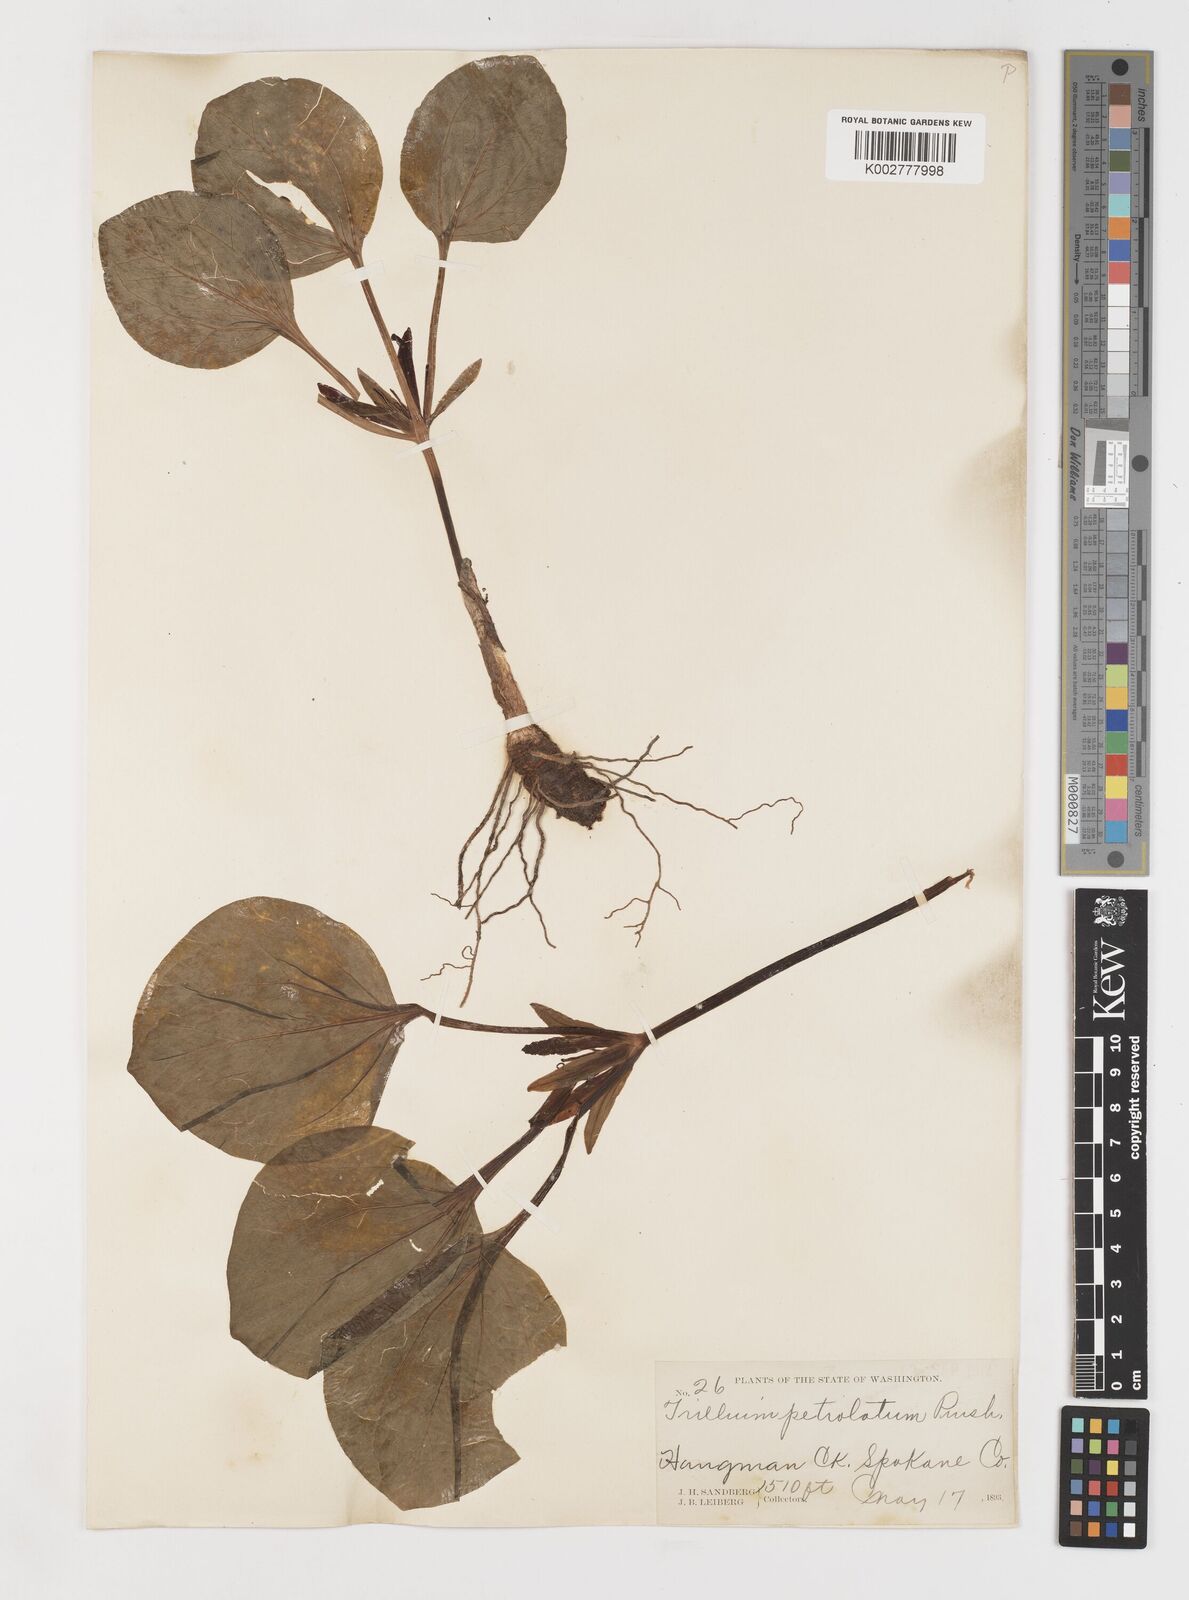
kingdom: Plantae
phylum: Tracheophyta
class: Liliopsida
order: Liliales
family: Melanthiaceae
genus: Trillium
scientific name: Trillium petiolatum
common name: Idaho trillium
